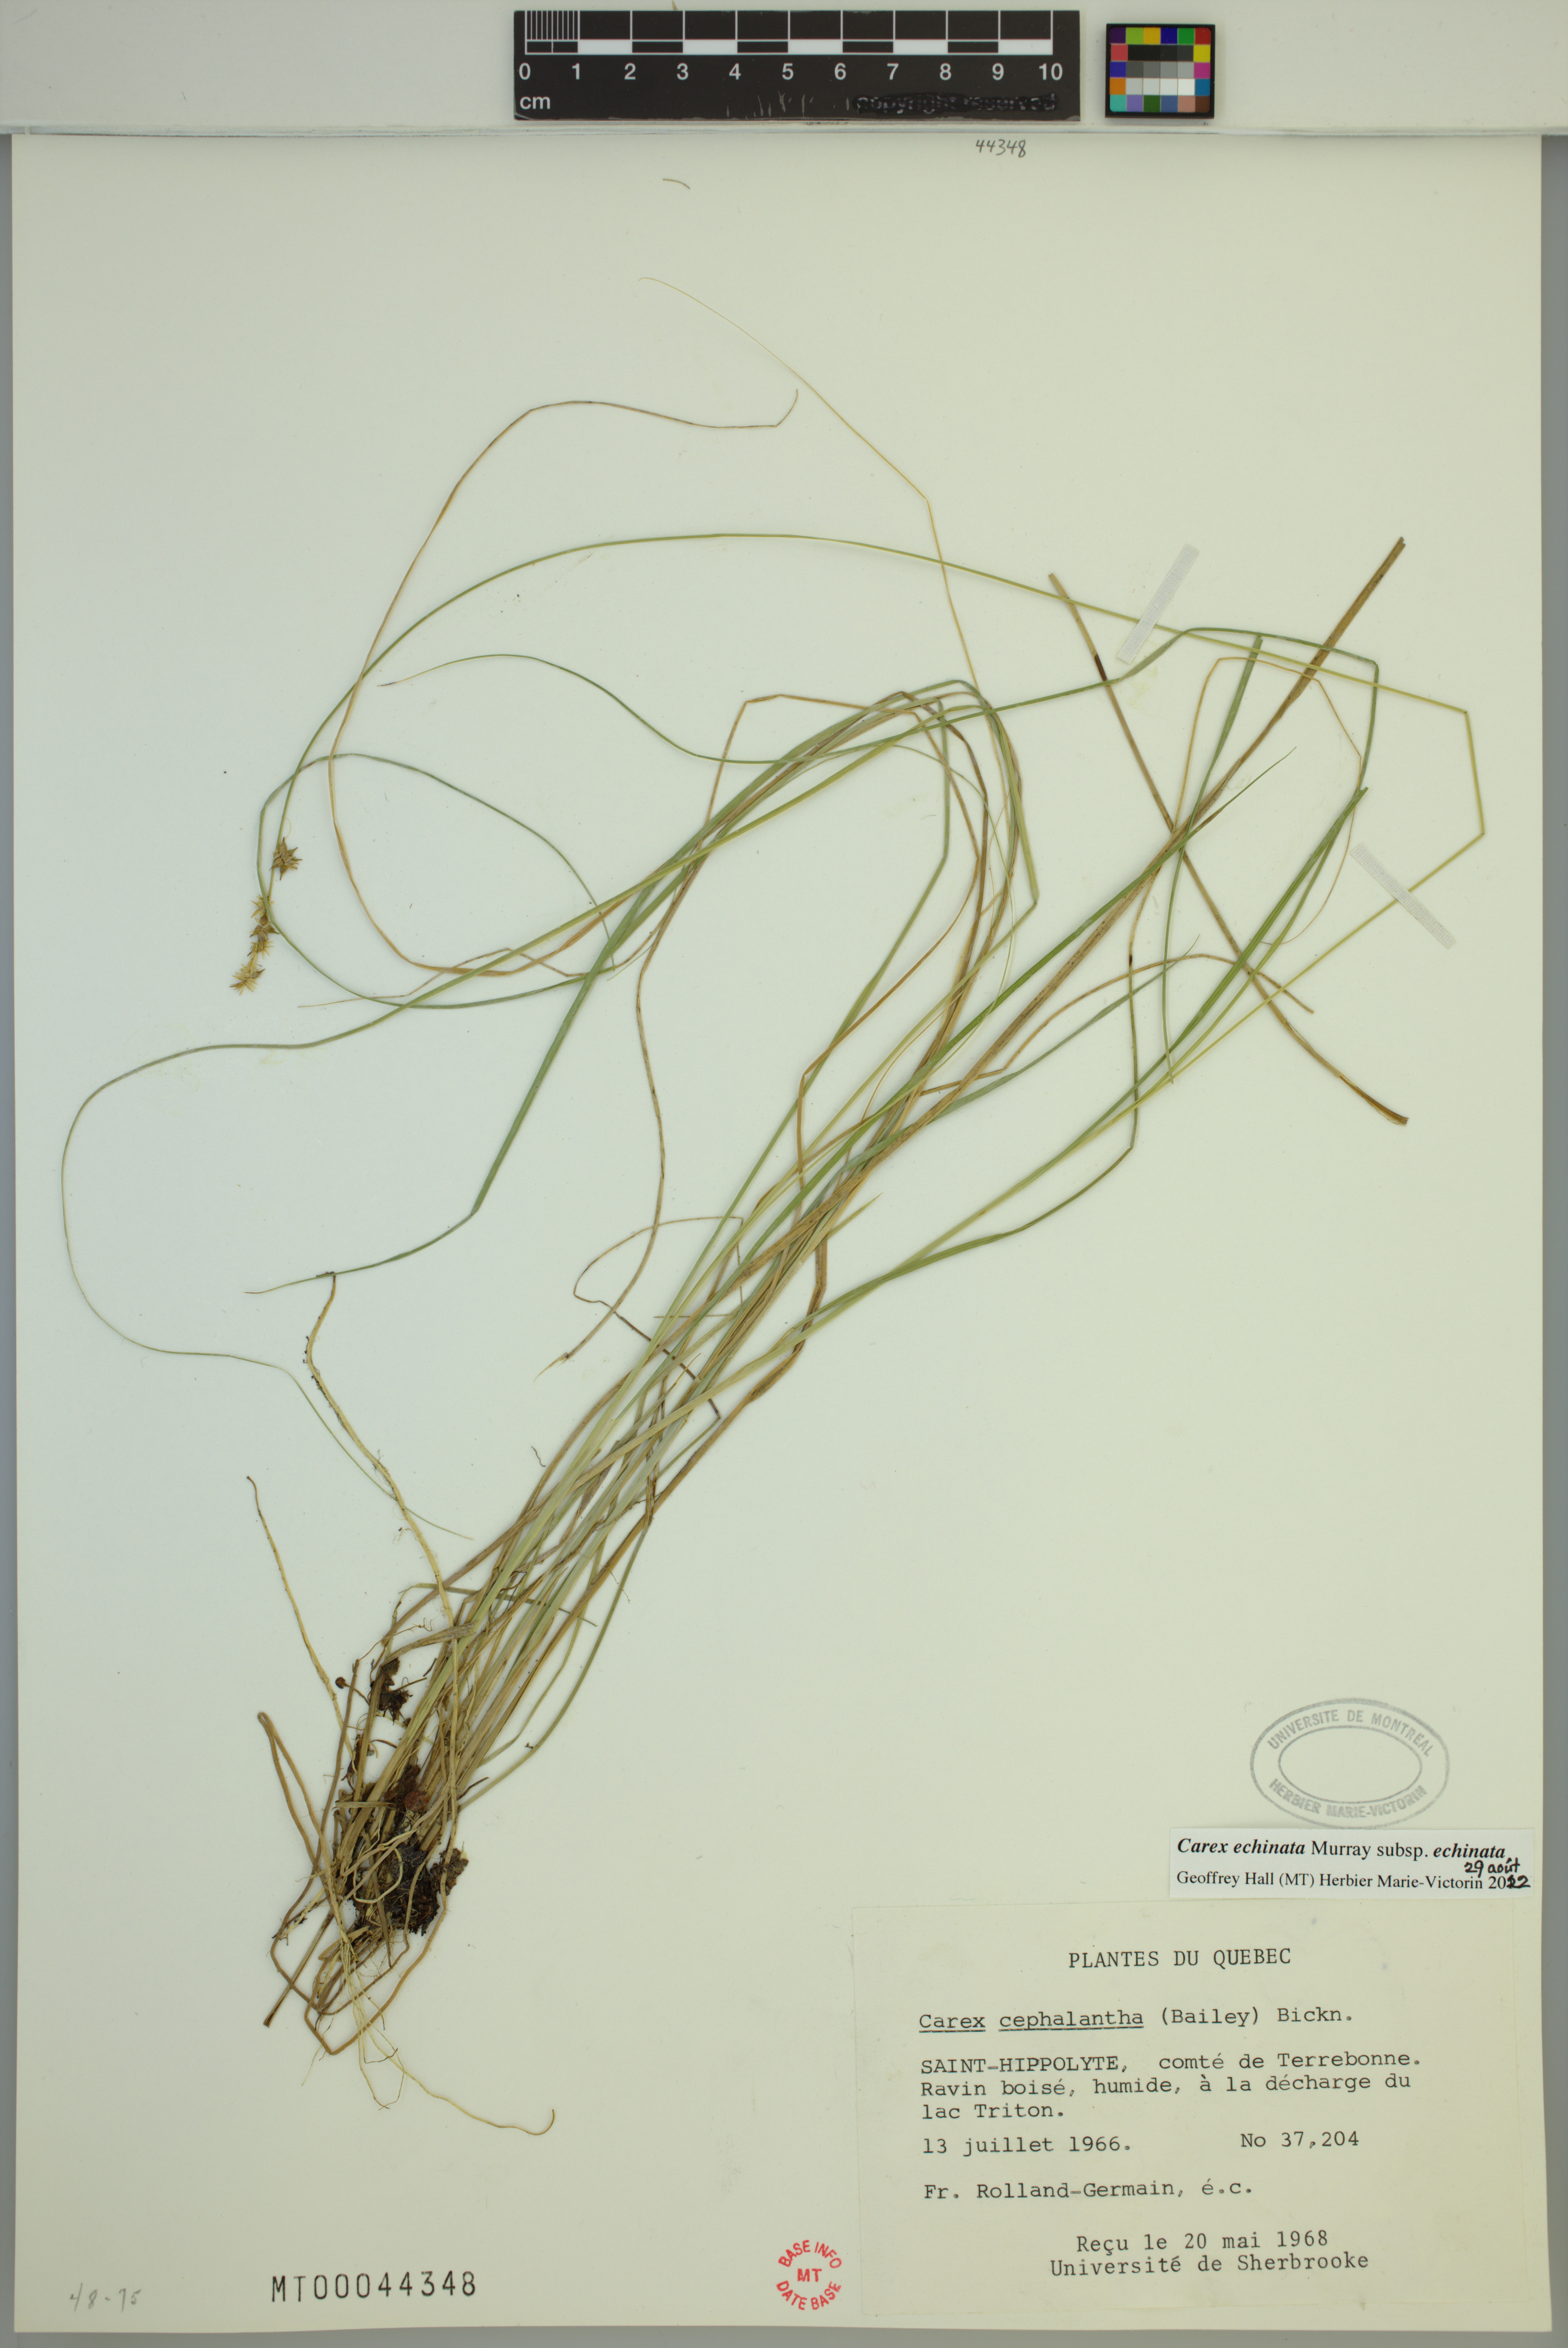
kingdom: Plantae
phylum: Tracheophyta
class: Liliopsida
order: Poales
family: Cyperaceae
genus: Carex
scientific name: Carex echinata
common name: Star sedge
